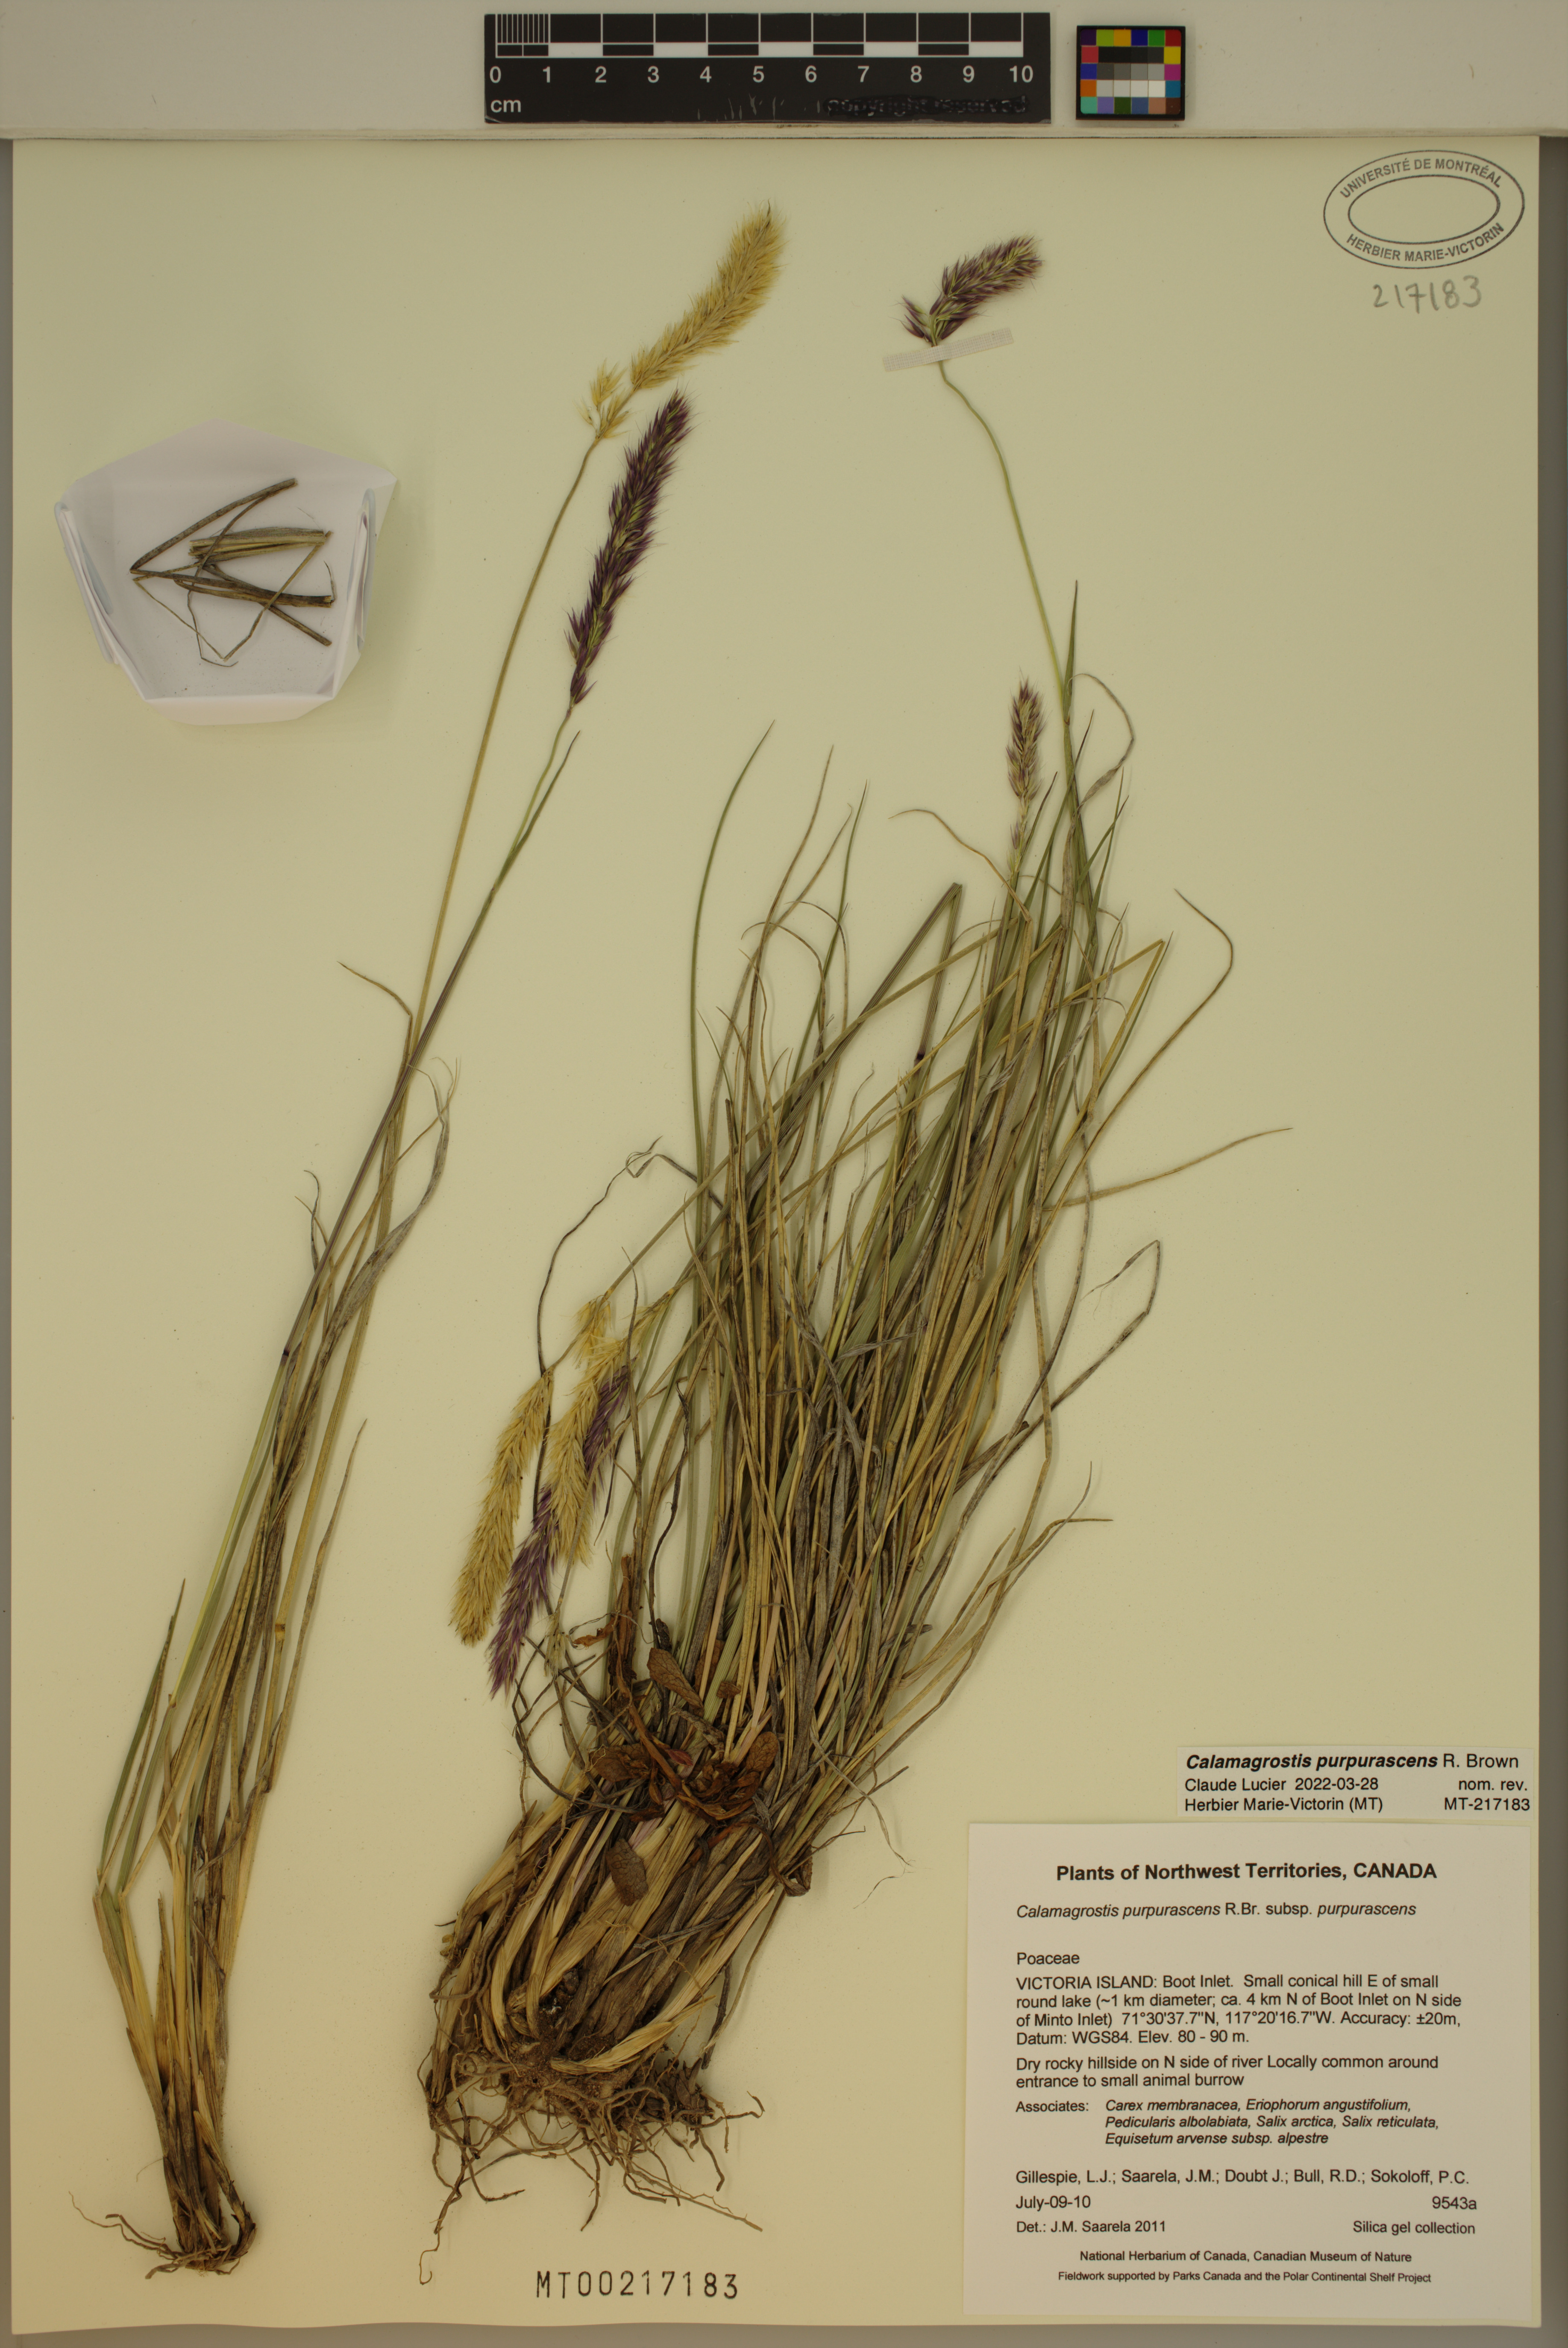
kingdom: Plantae
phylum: Tracheophyta
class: Liliopsida
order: Poales
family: Poaceae
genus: Calamagrostis
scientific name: Calamagrostis purpurascens
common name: Purple reedgrass
